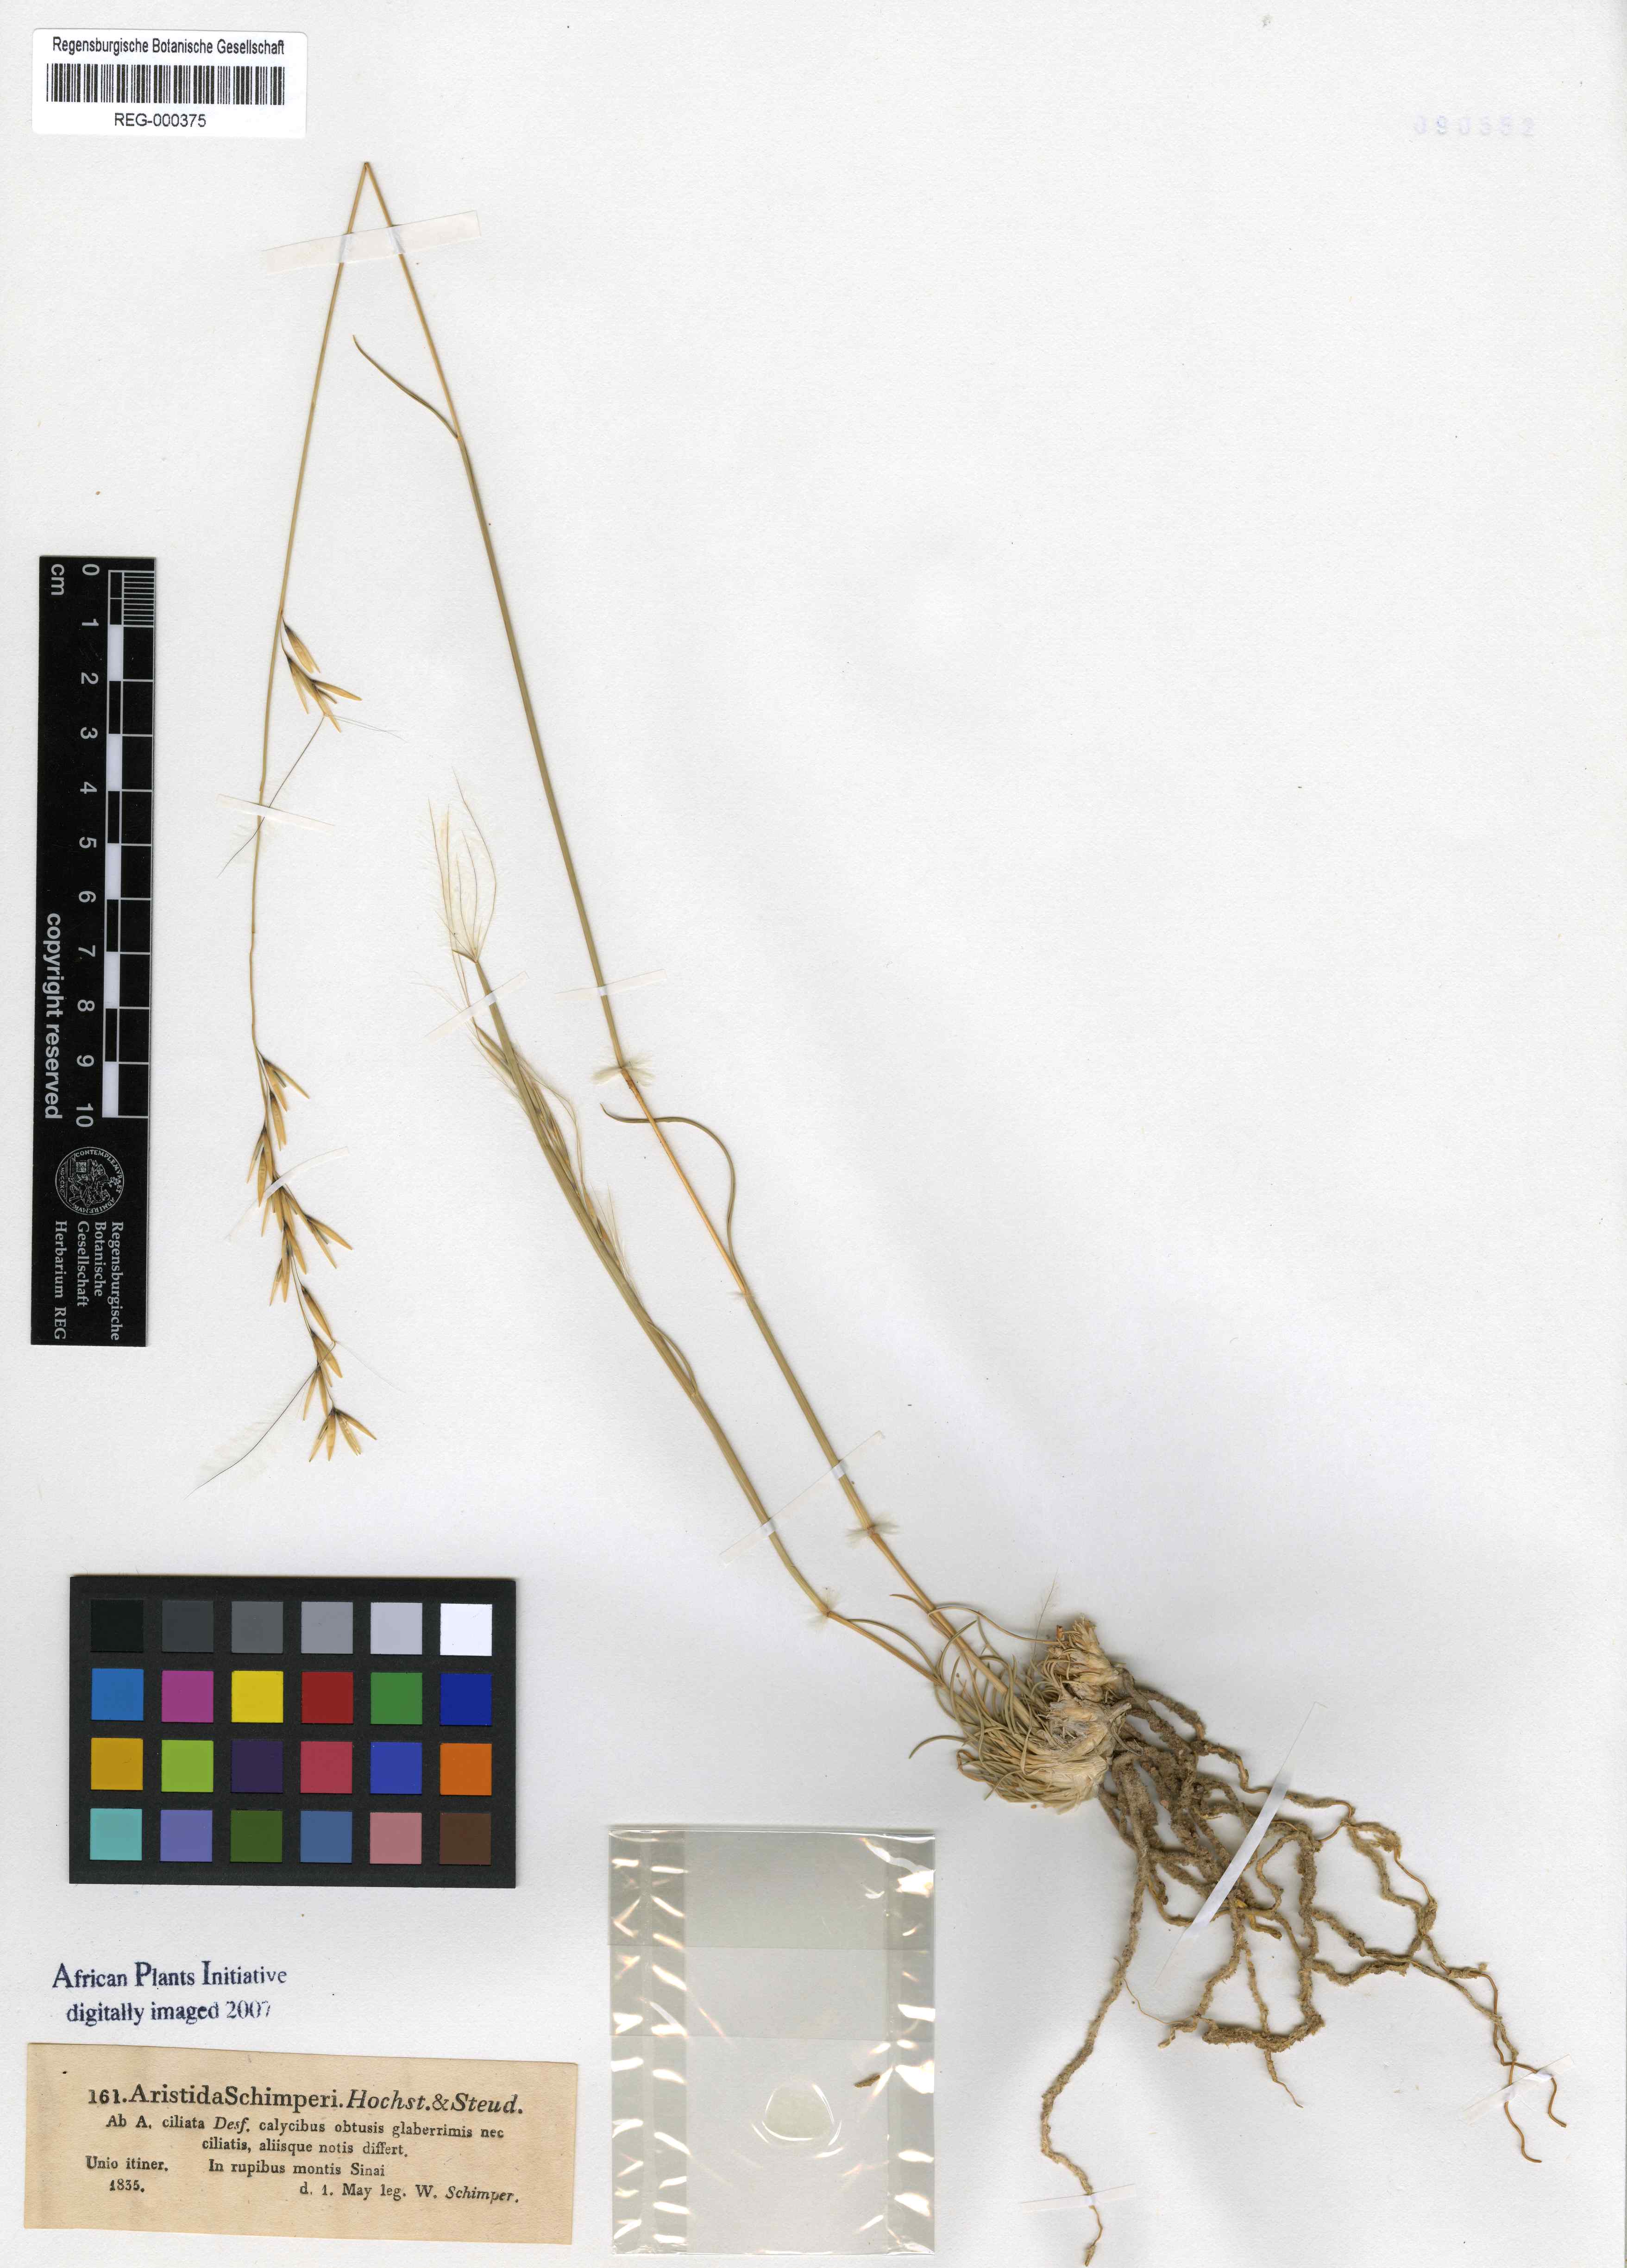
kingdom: Plantae
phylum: Tracheophyta
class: Liliopsida
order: Poales
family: Poaceae
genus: Stipagrostis
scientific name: Stipagrostis ciliata
